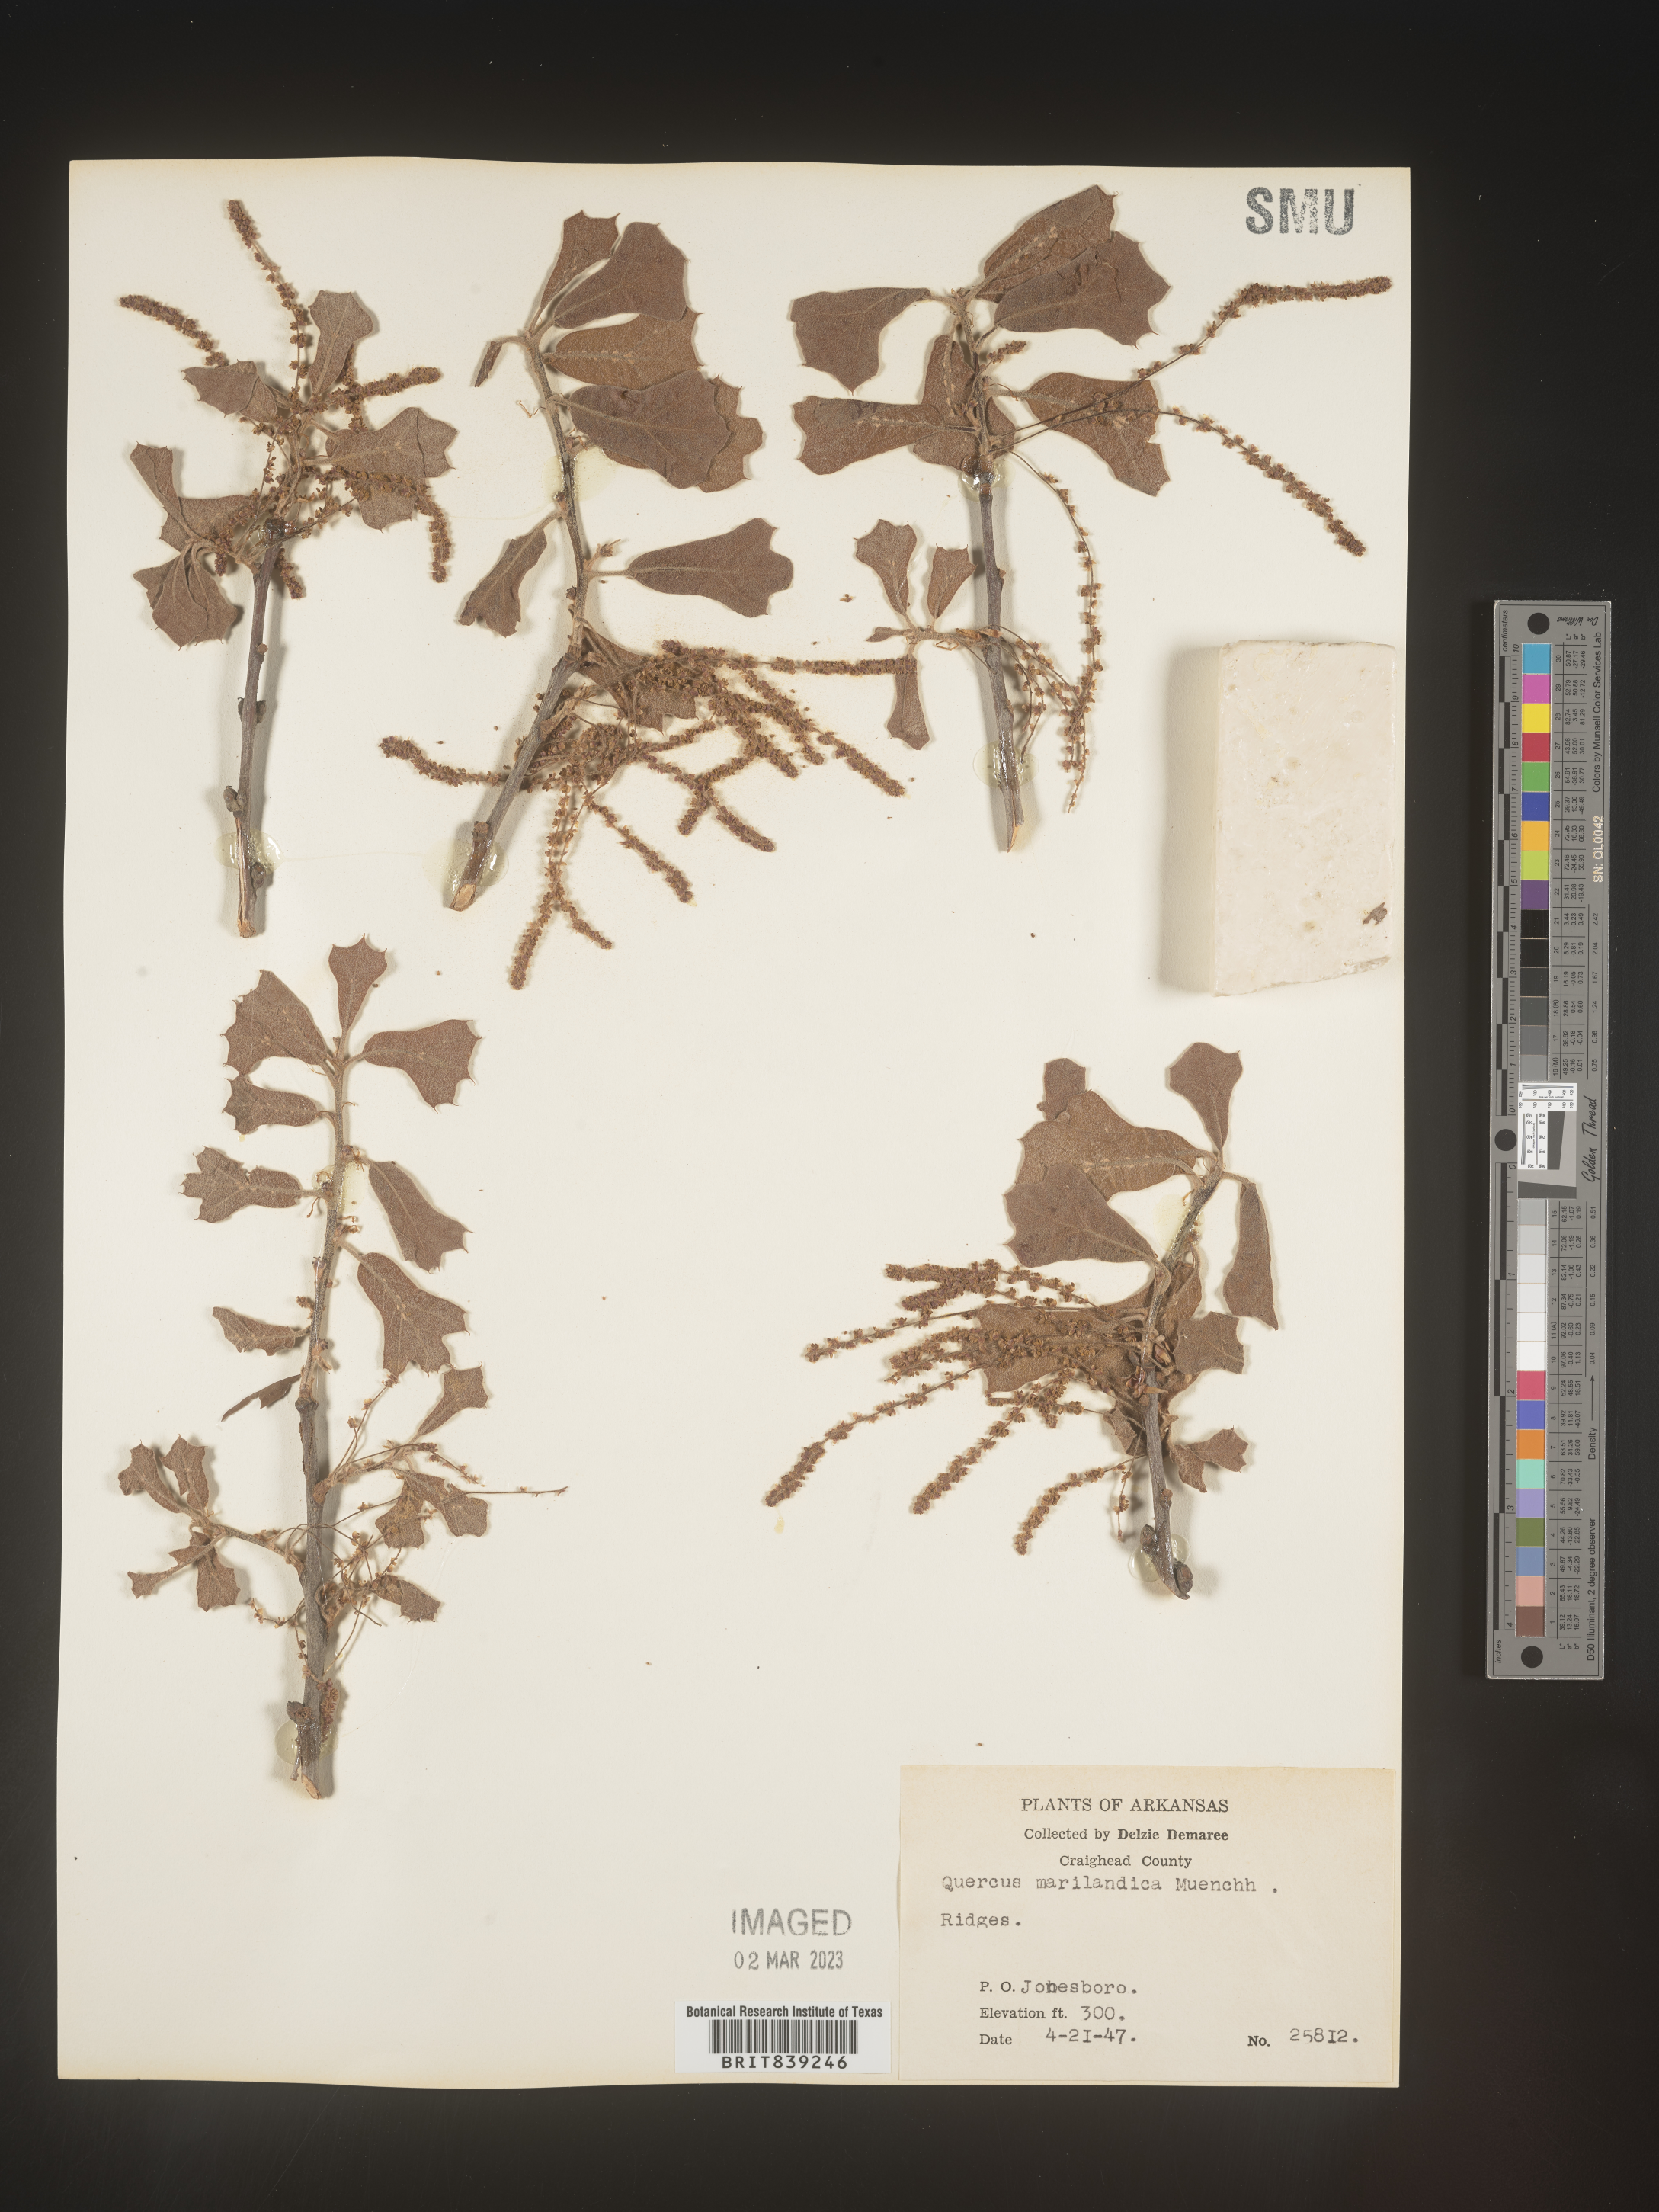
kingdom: Plantae
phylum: Tracheophyta
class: Magnoliopsida
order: Fagales
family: Fagaceae
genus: Quercus
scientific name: Quercus marilandica
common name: Blackjack oak
